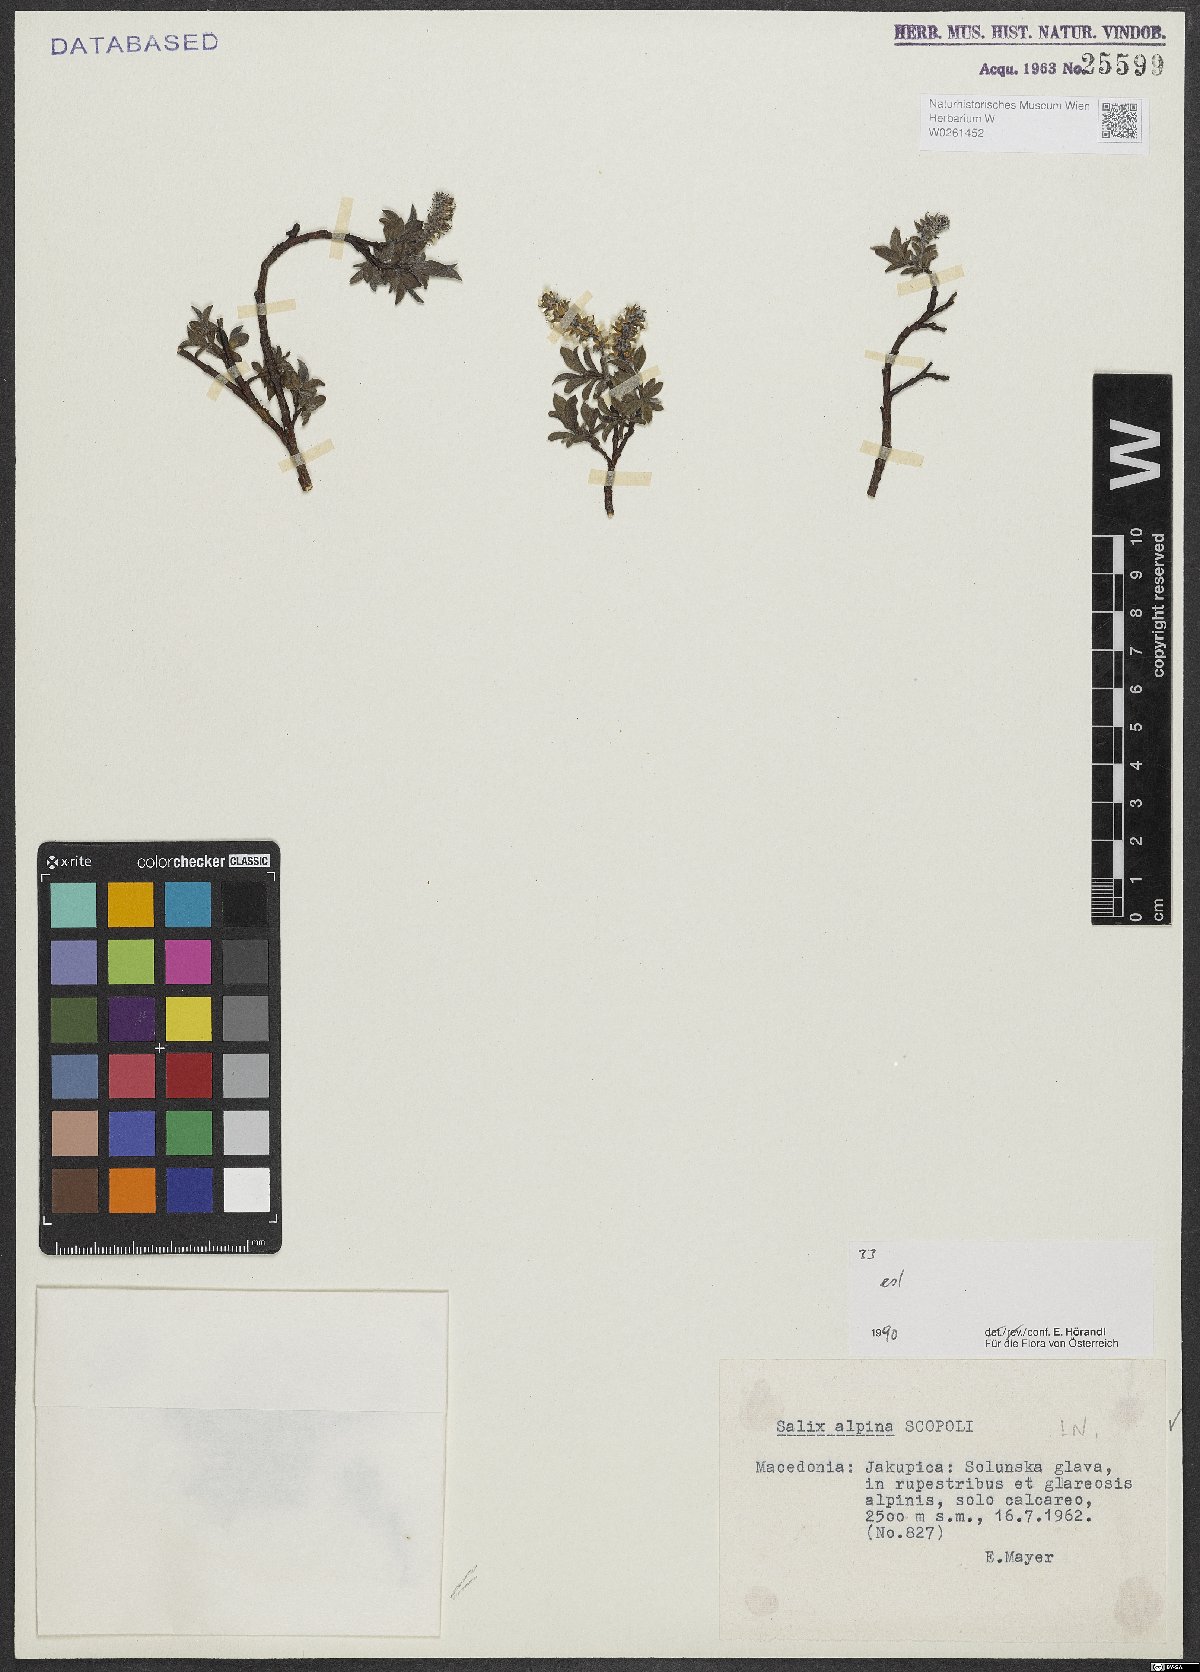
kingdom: Plantae
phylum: Tracheophyta
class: Magnoliopsida
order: Malpighiales
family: Salicaceae
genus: Salix
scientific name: Salix alpina
